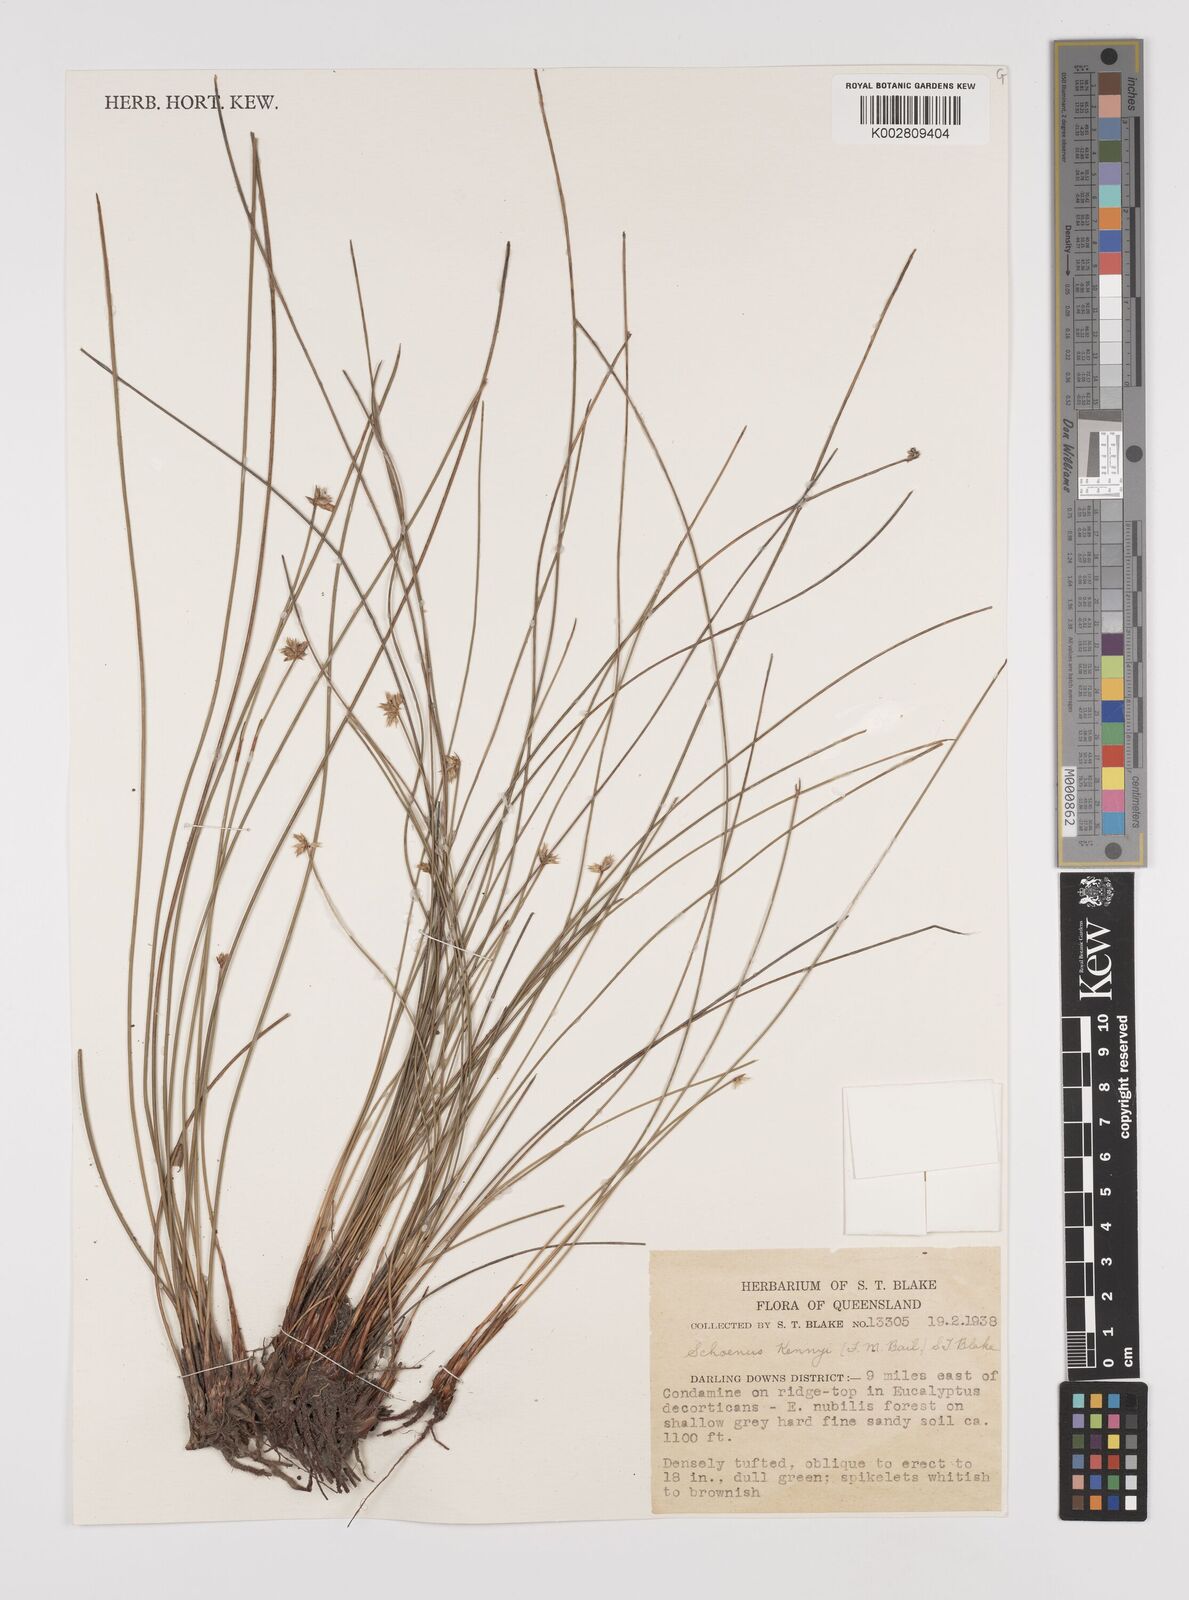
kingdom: Plantae
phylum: Tracheophyta
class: Liliopsida
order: Poales
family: Cyperaceae
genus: Schoenus
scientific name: Schoenus kennyi
